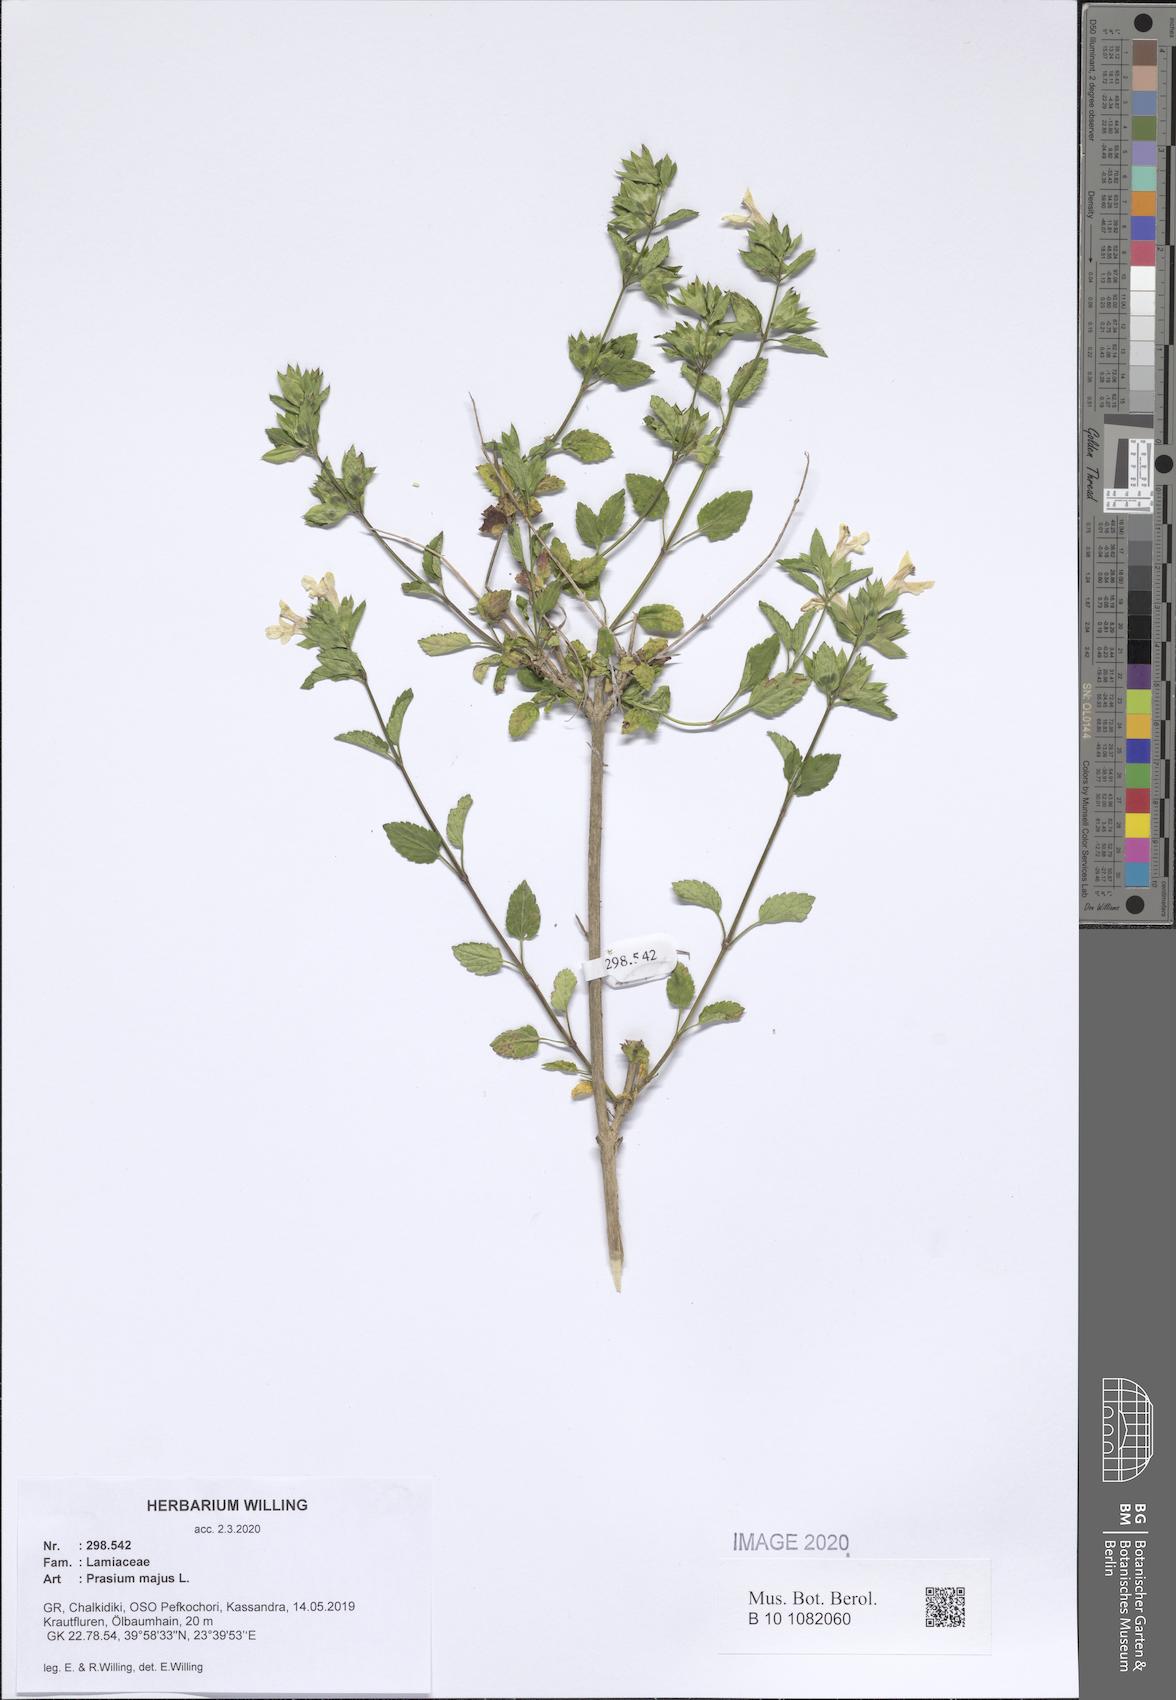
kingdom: Plantae
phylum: Tracheophyta
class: Magnoliopsida
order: Lamiales
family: Lamiaceae
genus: Prasium
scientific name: Prasium majus
